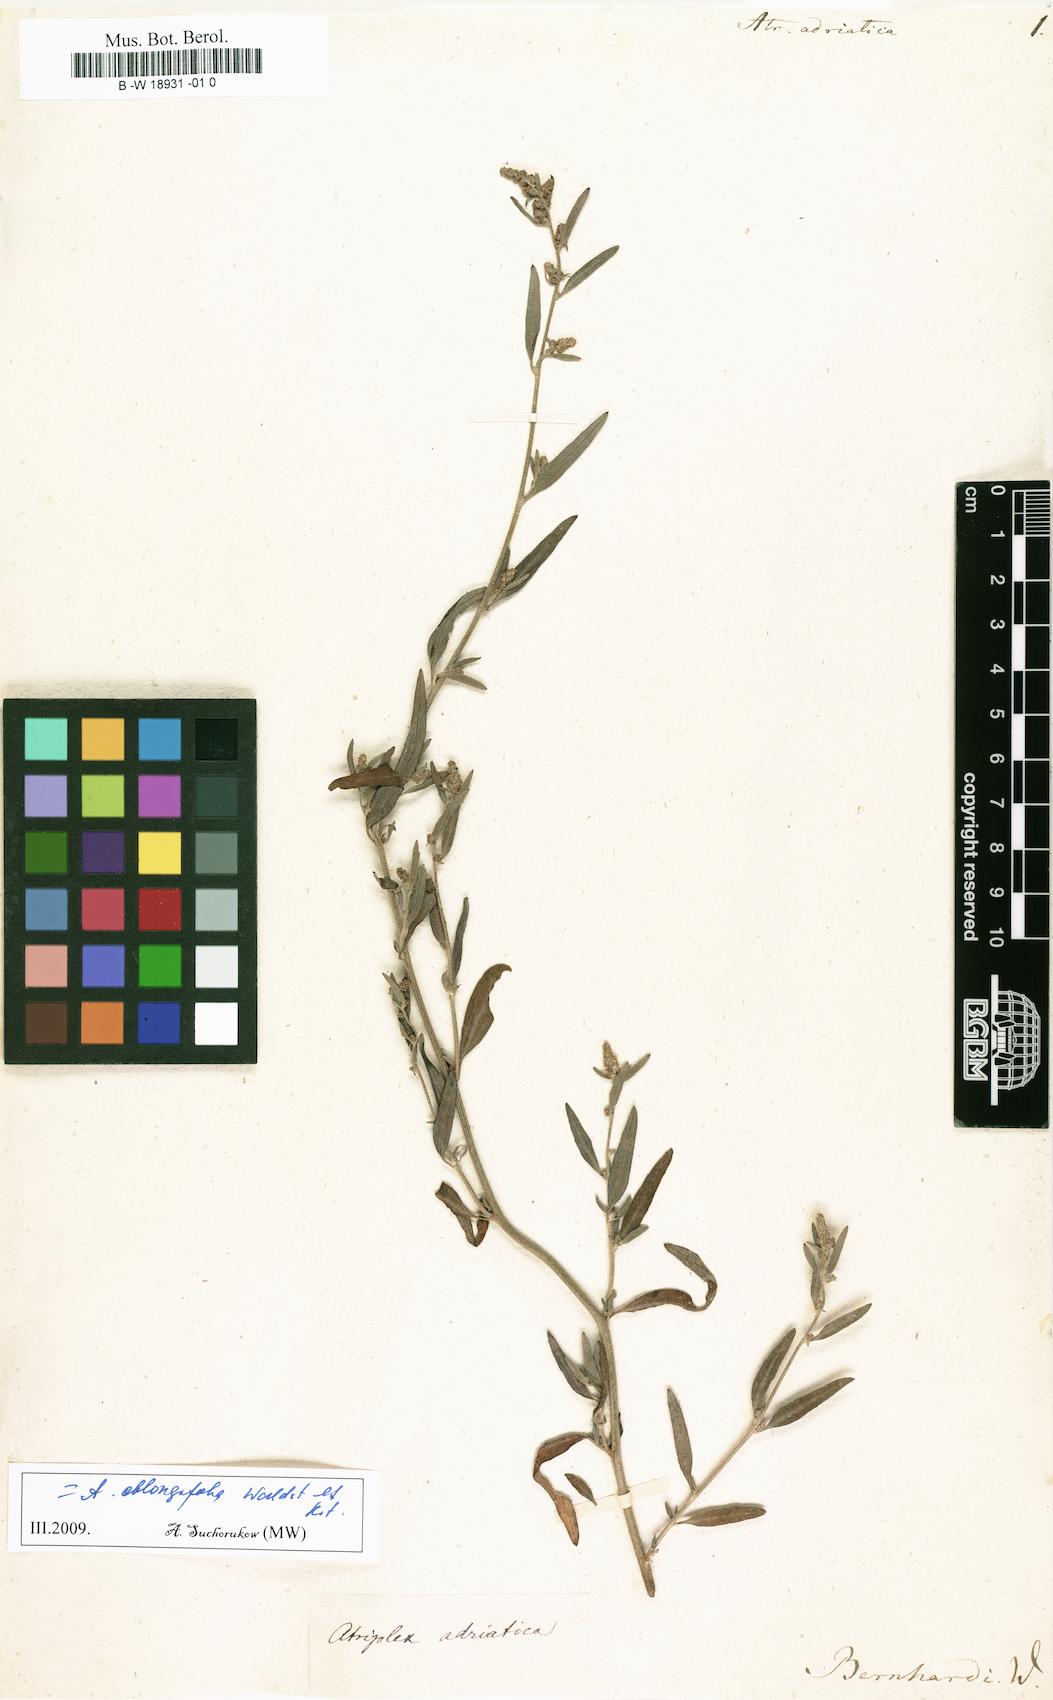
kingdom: Plantae
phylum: Tracheophyta
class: Magnoliopsida
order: Caryophyllales
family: Amaranthaceae
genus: Atriplex
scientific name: Atriplex
